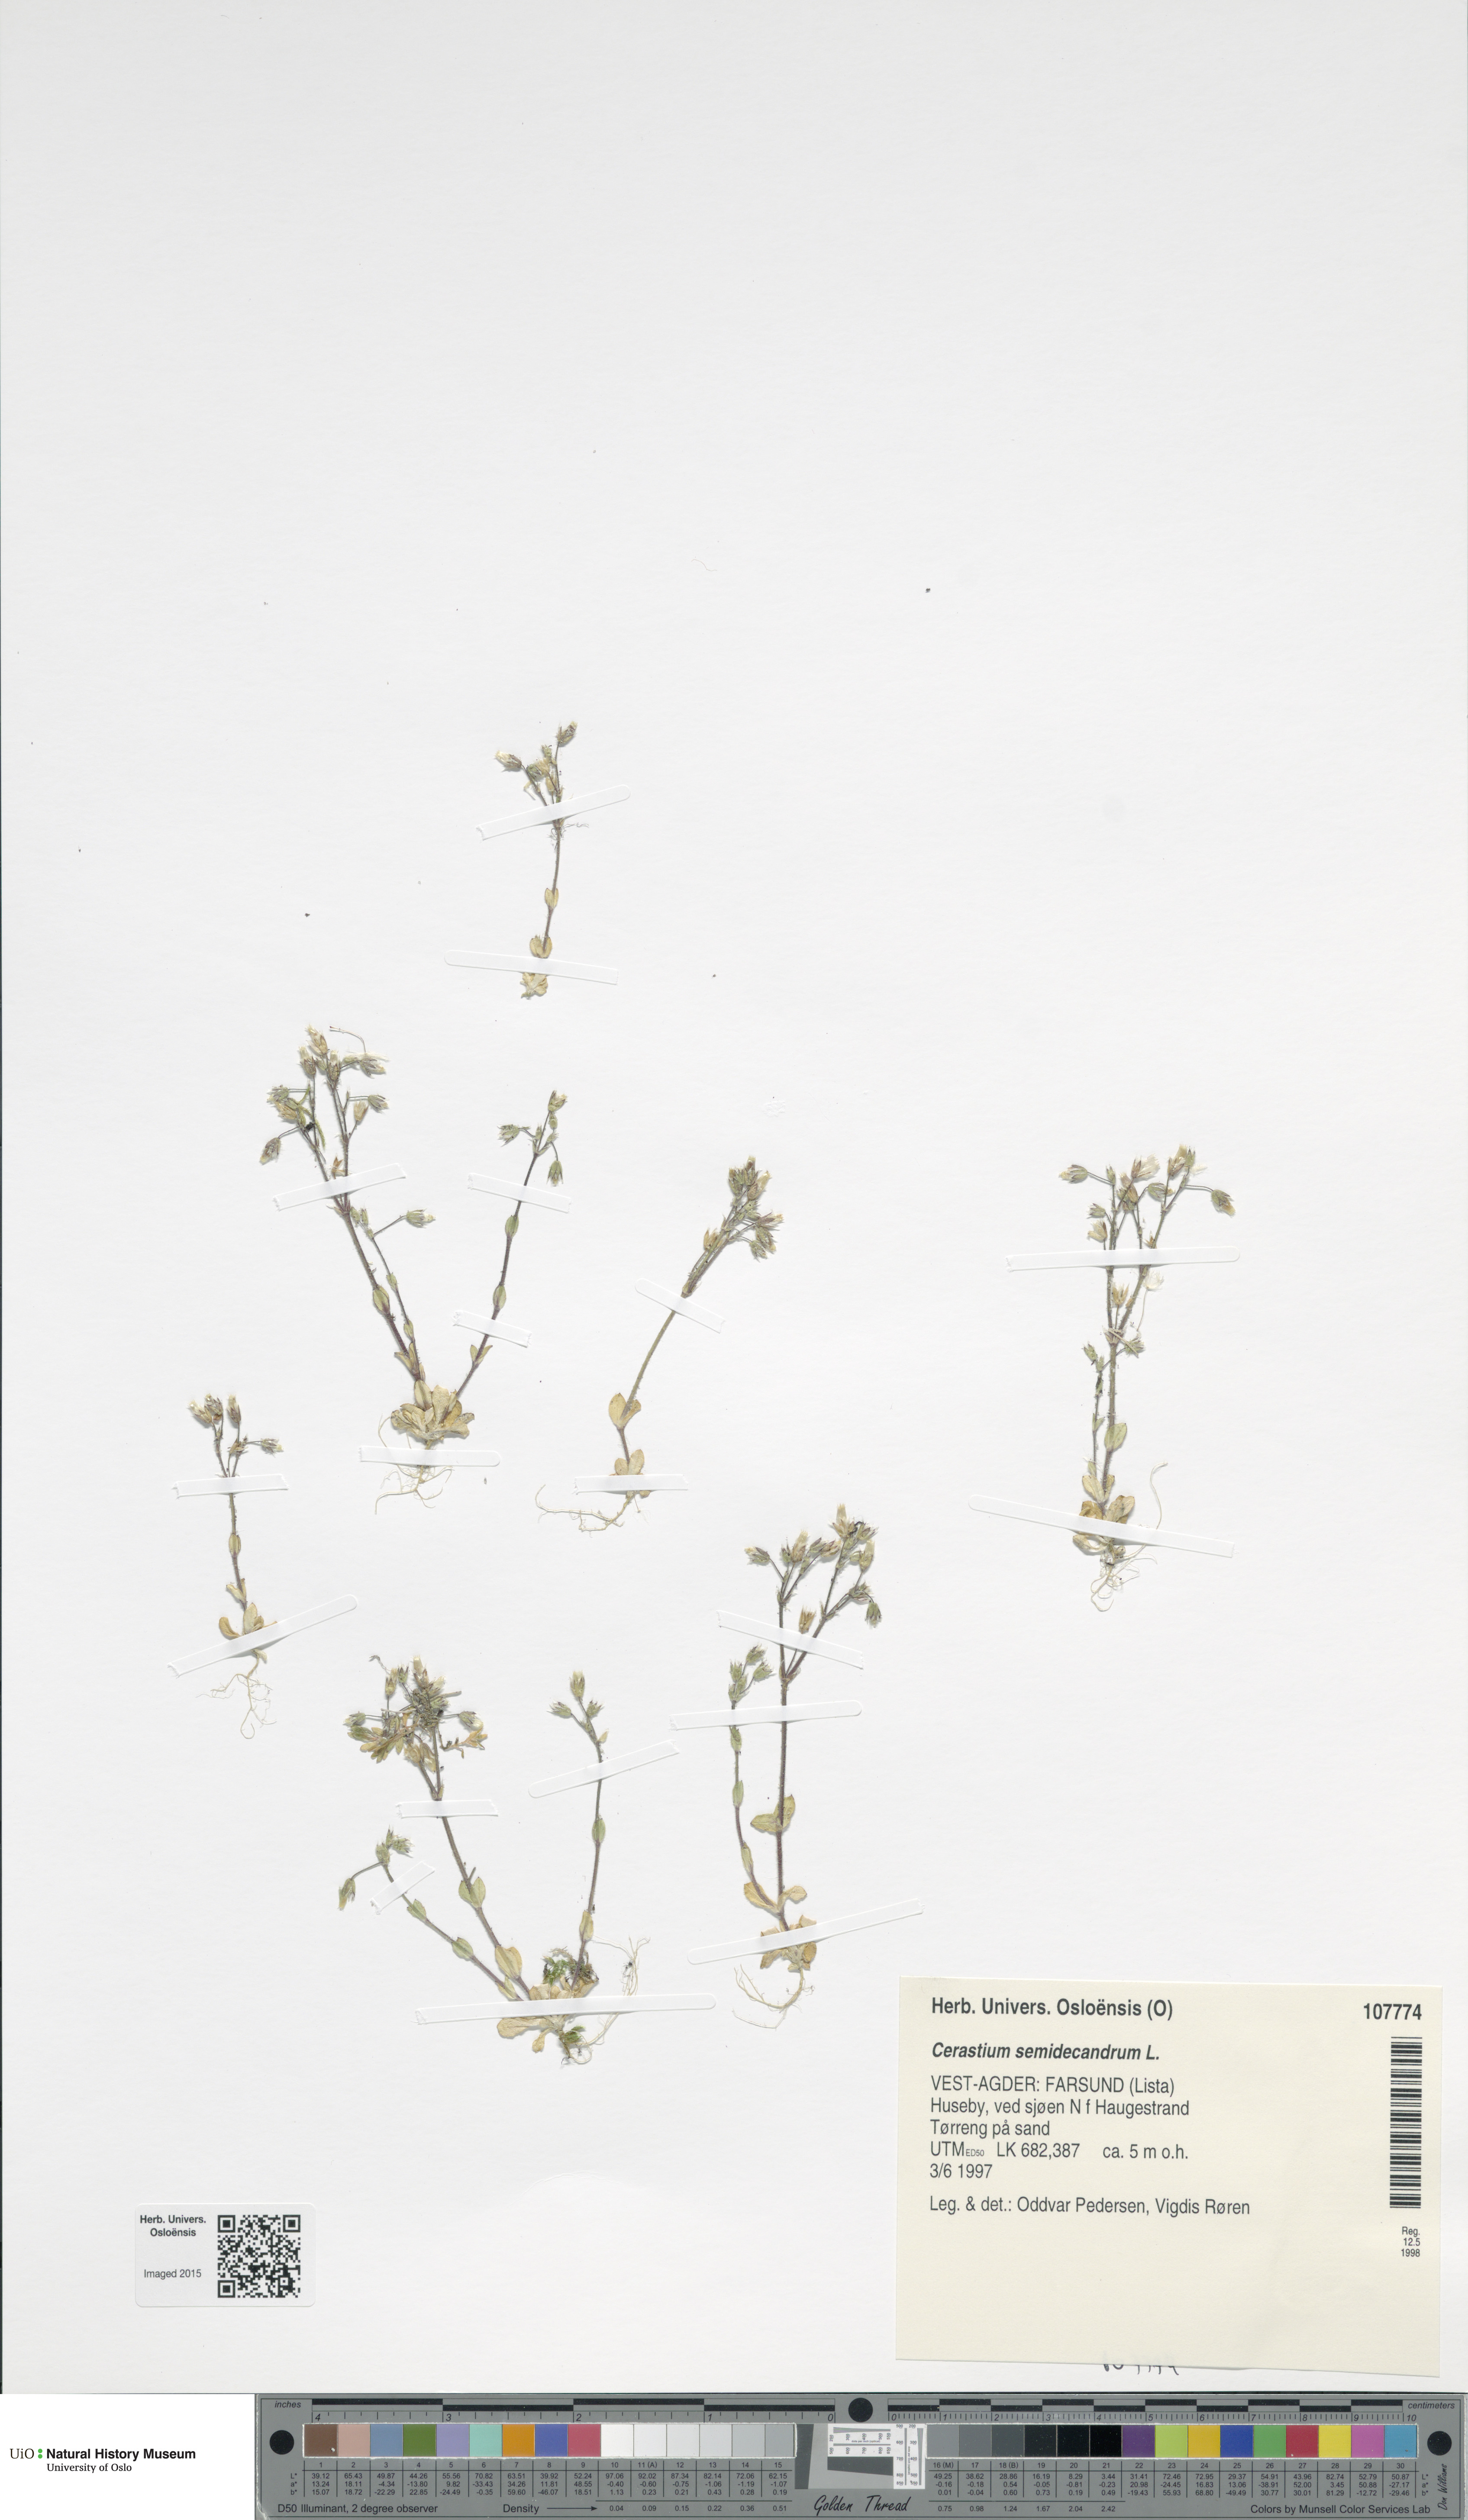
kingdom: Plantae
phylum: Tracheophyta
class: Magnoliopsida
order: Caryophyllales
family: Caryophyllaceae
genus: Cerastium
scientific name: Cerastium semidecandrum
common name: Little mouse-ear
